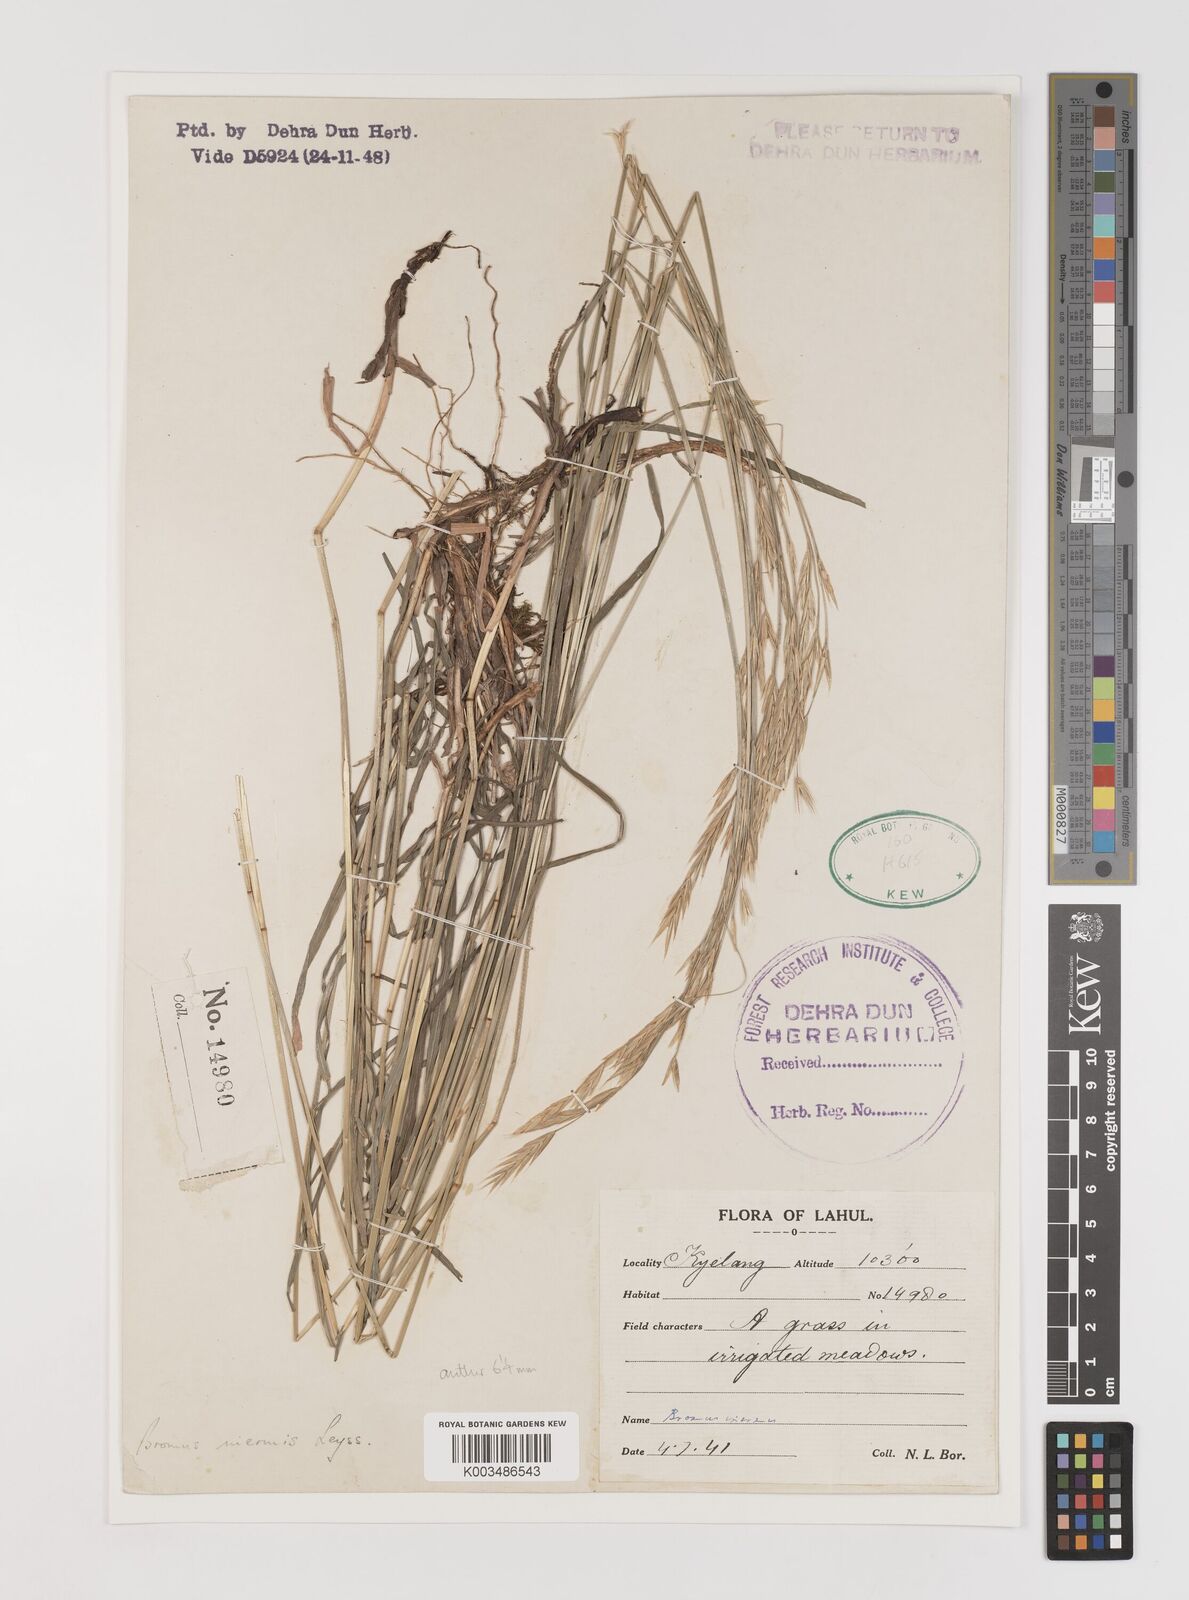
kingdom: Plantae
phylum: Tracheophyta
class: Liliopsida
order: Poales
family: Poaceae
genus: Bromus
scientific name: Bromus inermis
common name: Smooth brome
